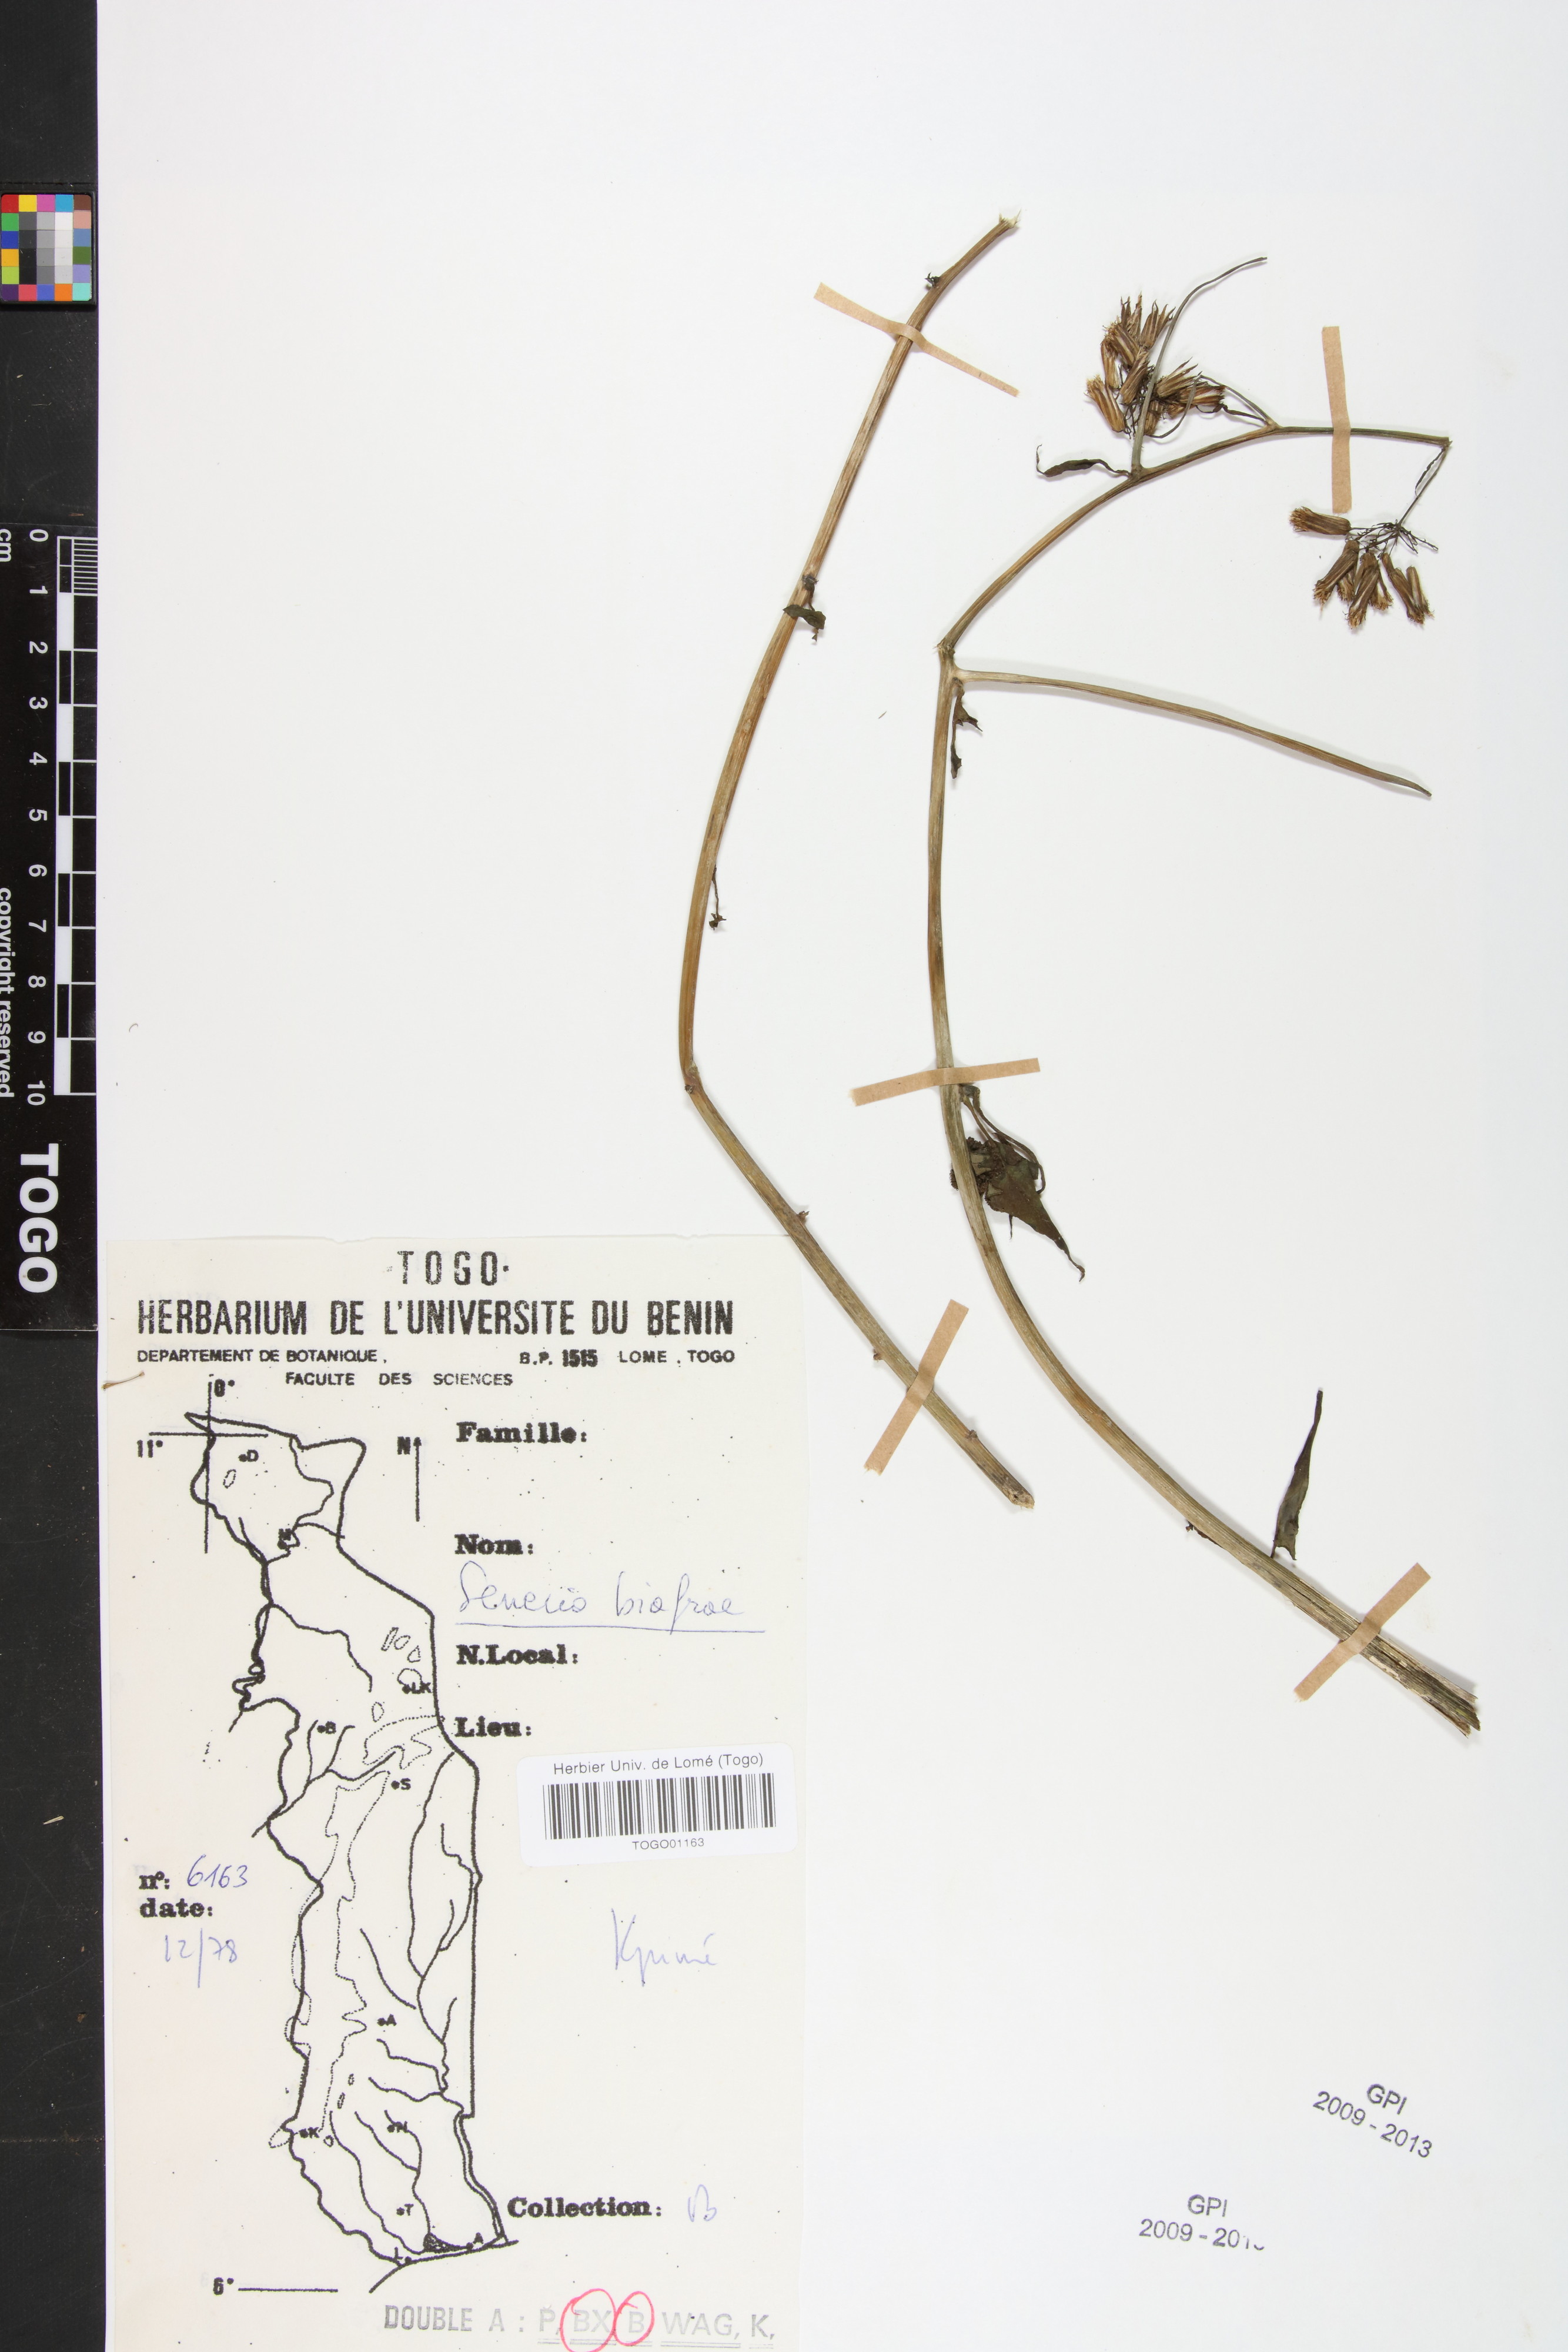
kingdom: Plantae
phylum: Tracheophyta
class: Magnoliopsida
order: Asterales
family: Asteraceae
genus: Solanecio
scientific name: Solanecio biafrae
